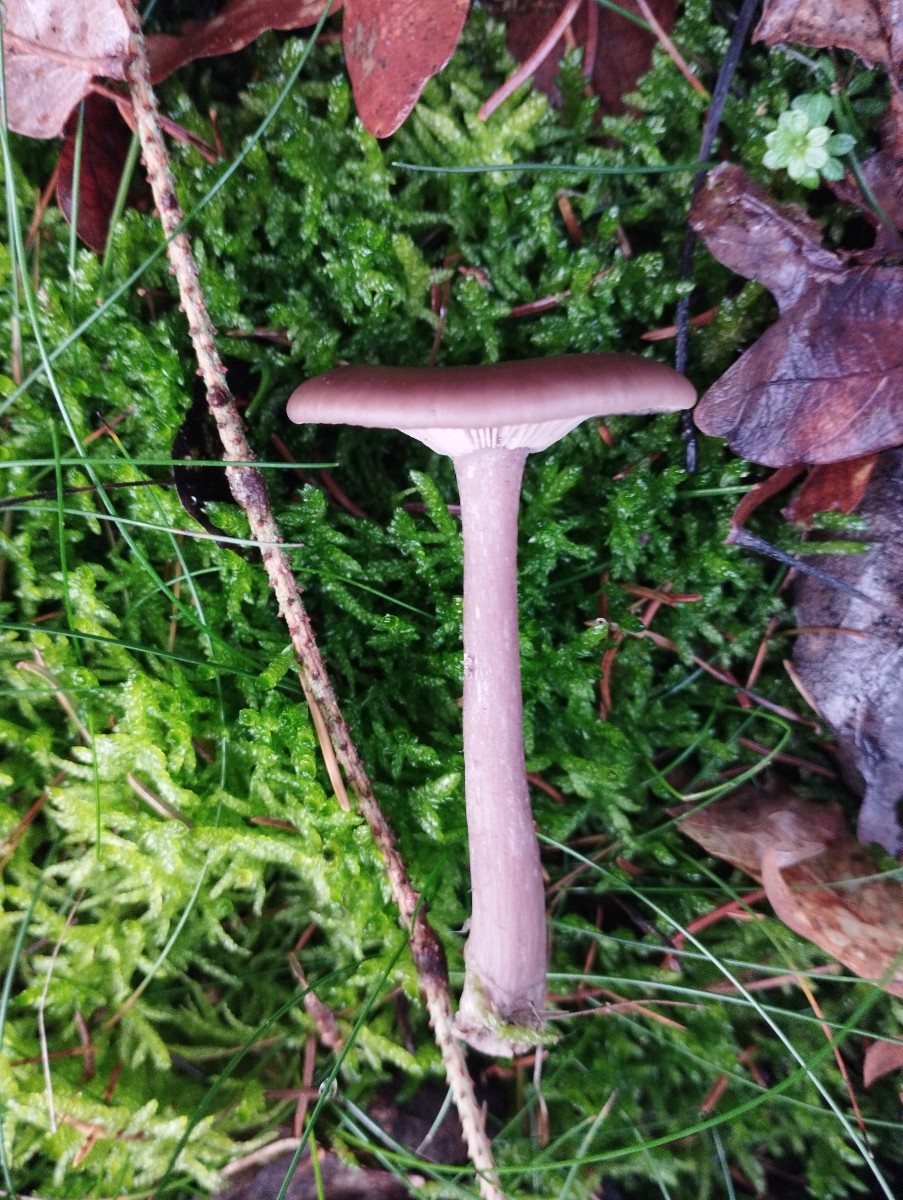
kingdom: Fungi
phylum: Basidiomycota
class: Agaricomycetes
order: Agaricales
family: Pseudoclitocybaceae
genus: Pseudoclitocybe
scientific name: Pseudoclitocybe cyathiformis
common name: almindelig bægertragthat
